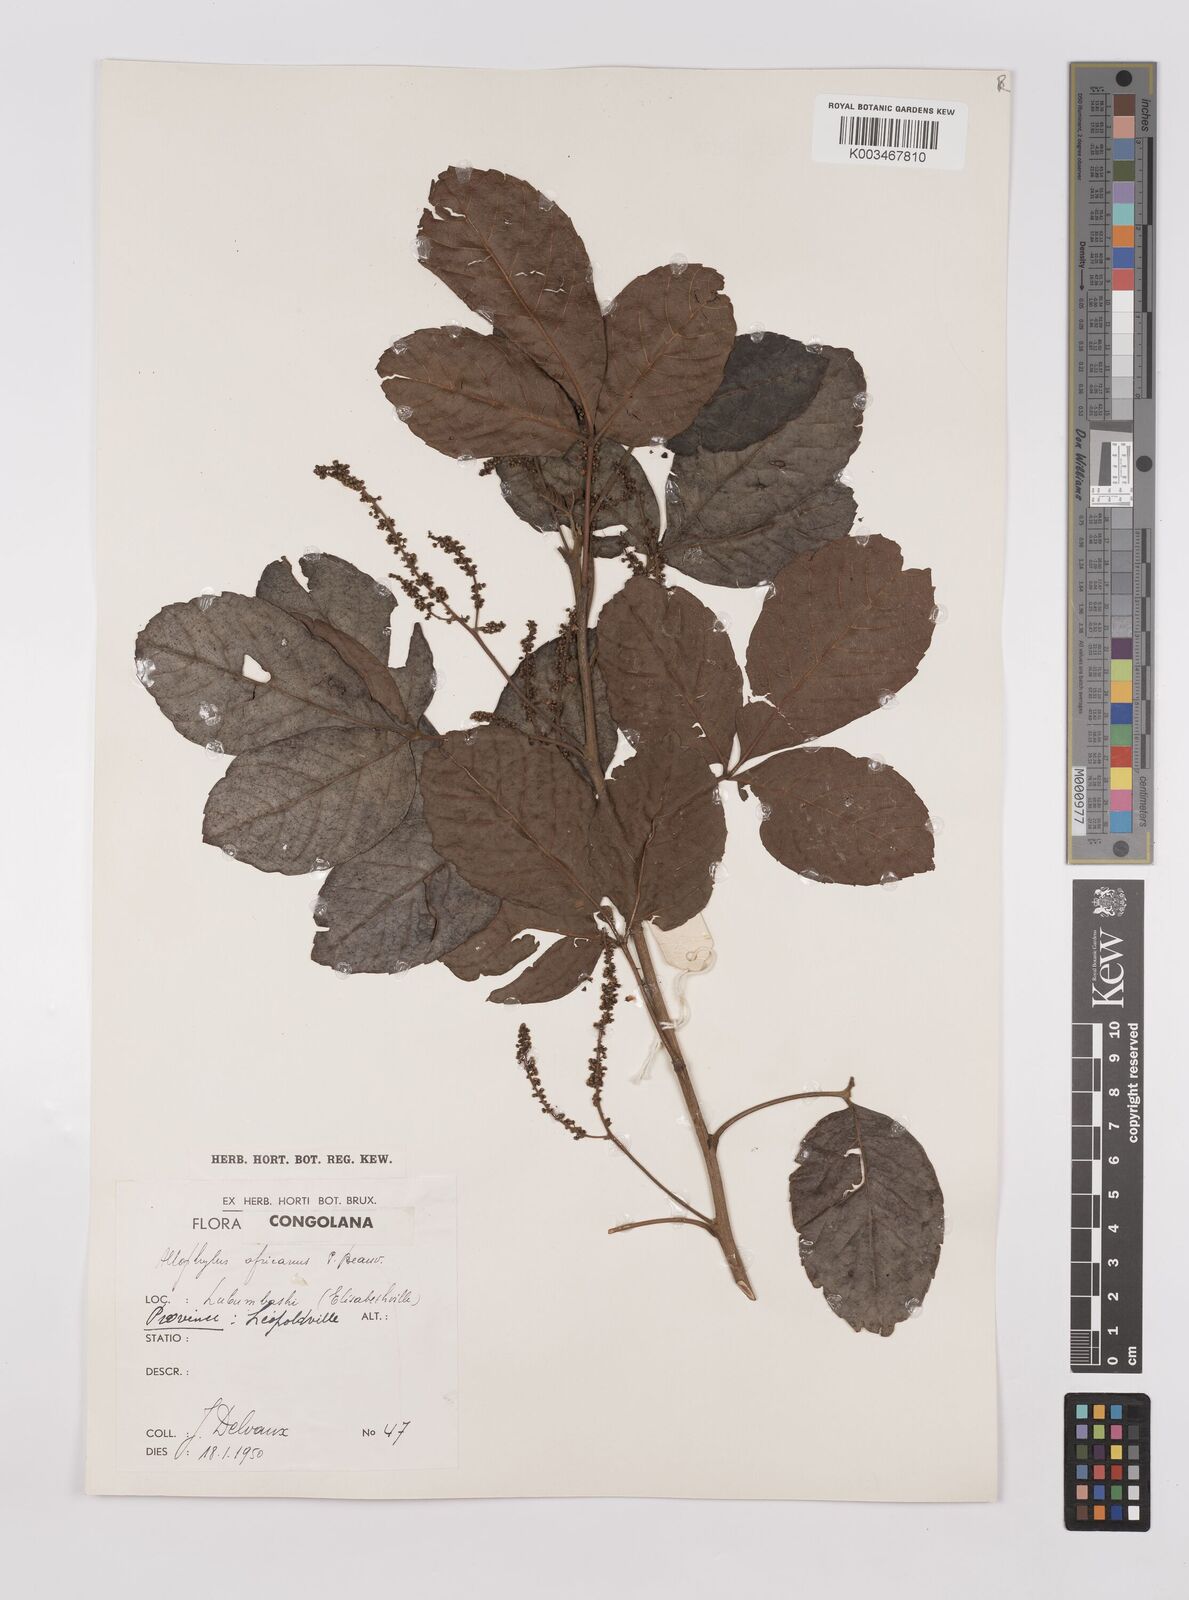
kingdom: Plantae
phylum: Tracheophyta
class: Magnoliopsida
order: Sapindales
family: Sapindaceae
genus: Allophylus
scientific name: Allophylus africanus
